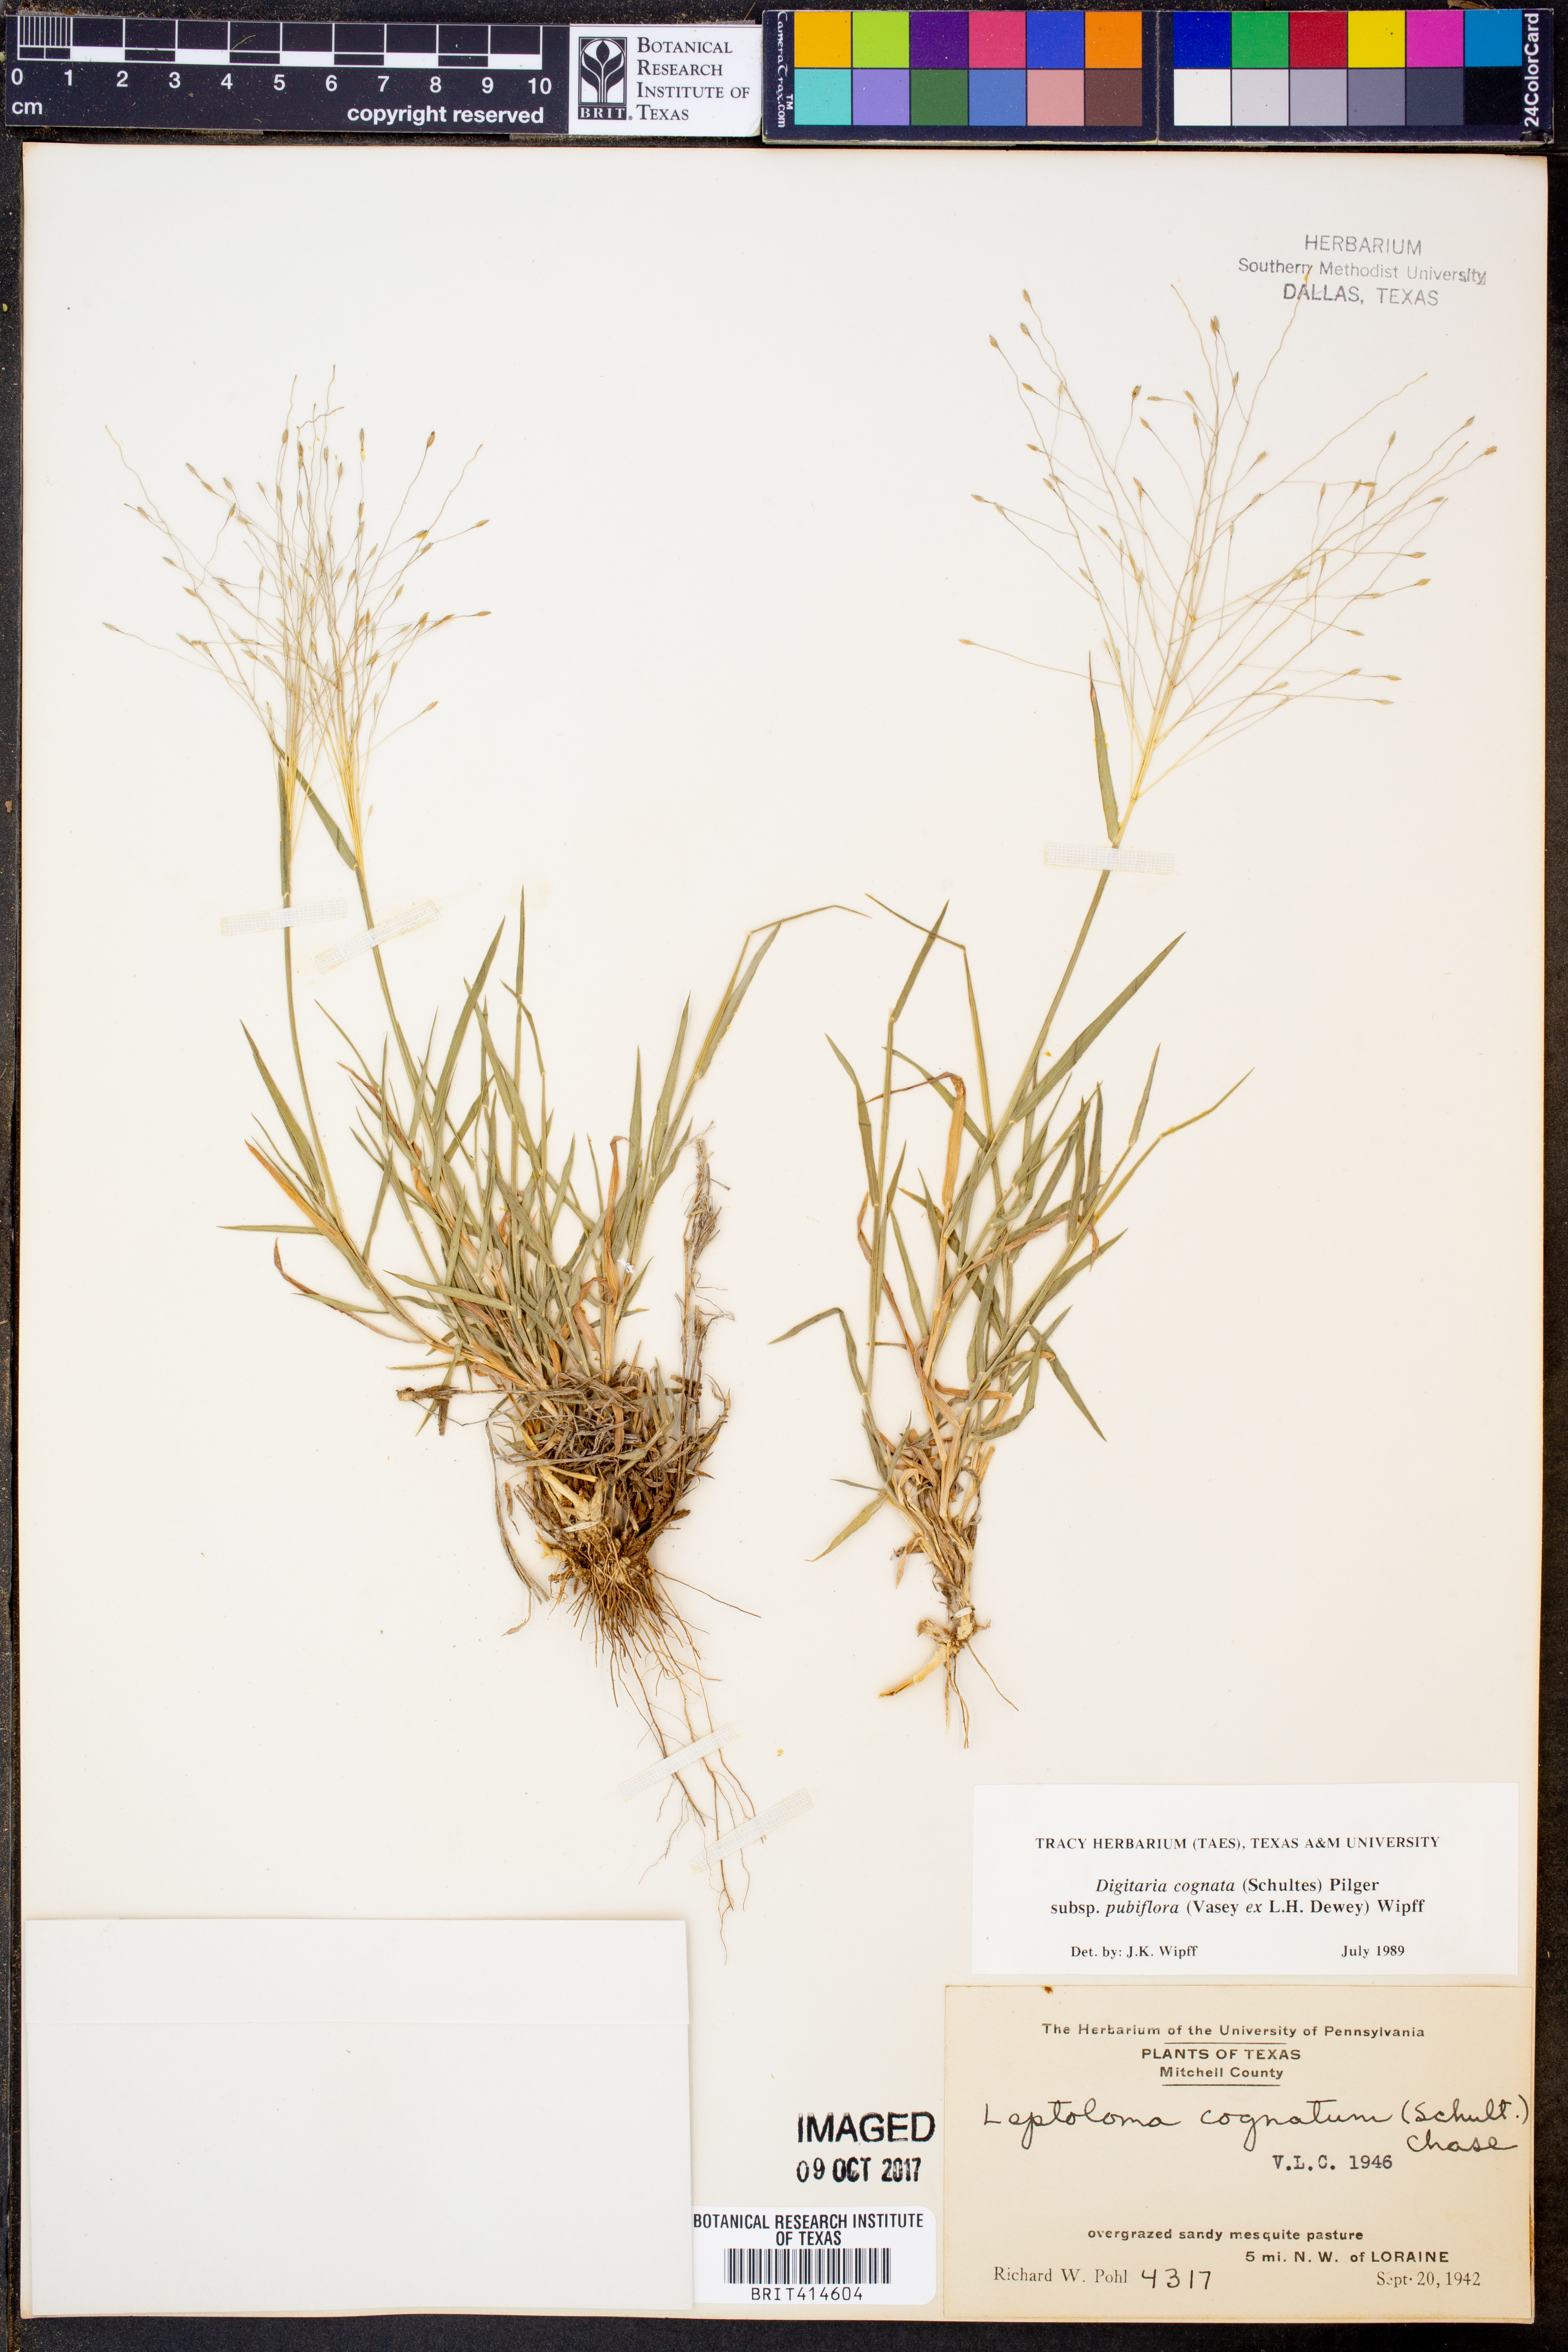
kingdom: Plantae
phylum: Tracheophyta
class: Liliopsida
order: Poales
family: Poaceae
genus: Digitaria
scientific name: Digitaria cognata
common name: Fall witchgrass
